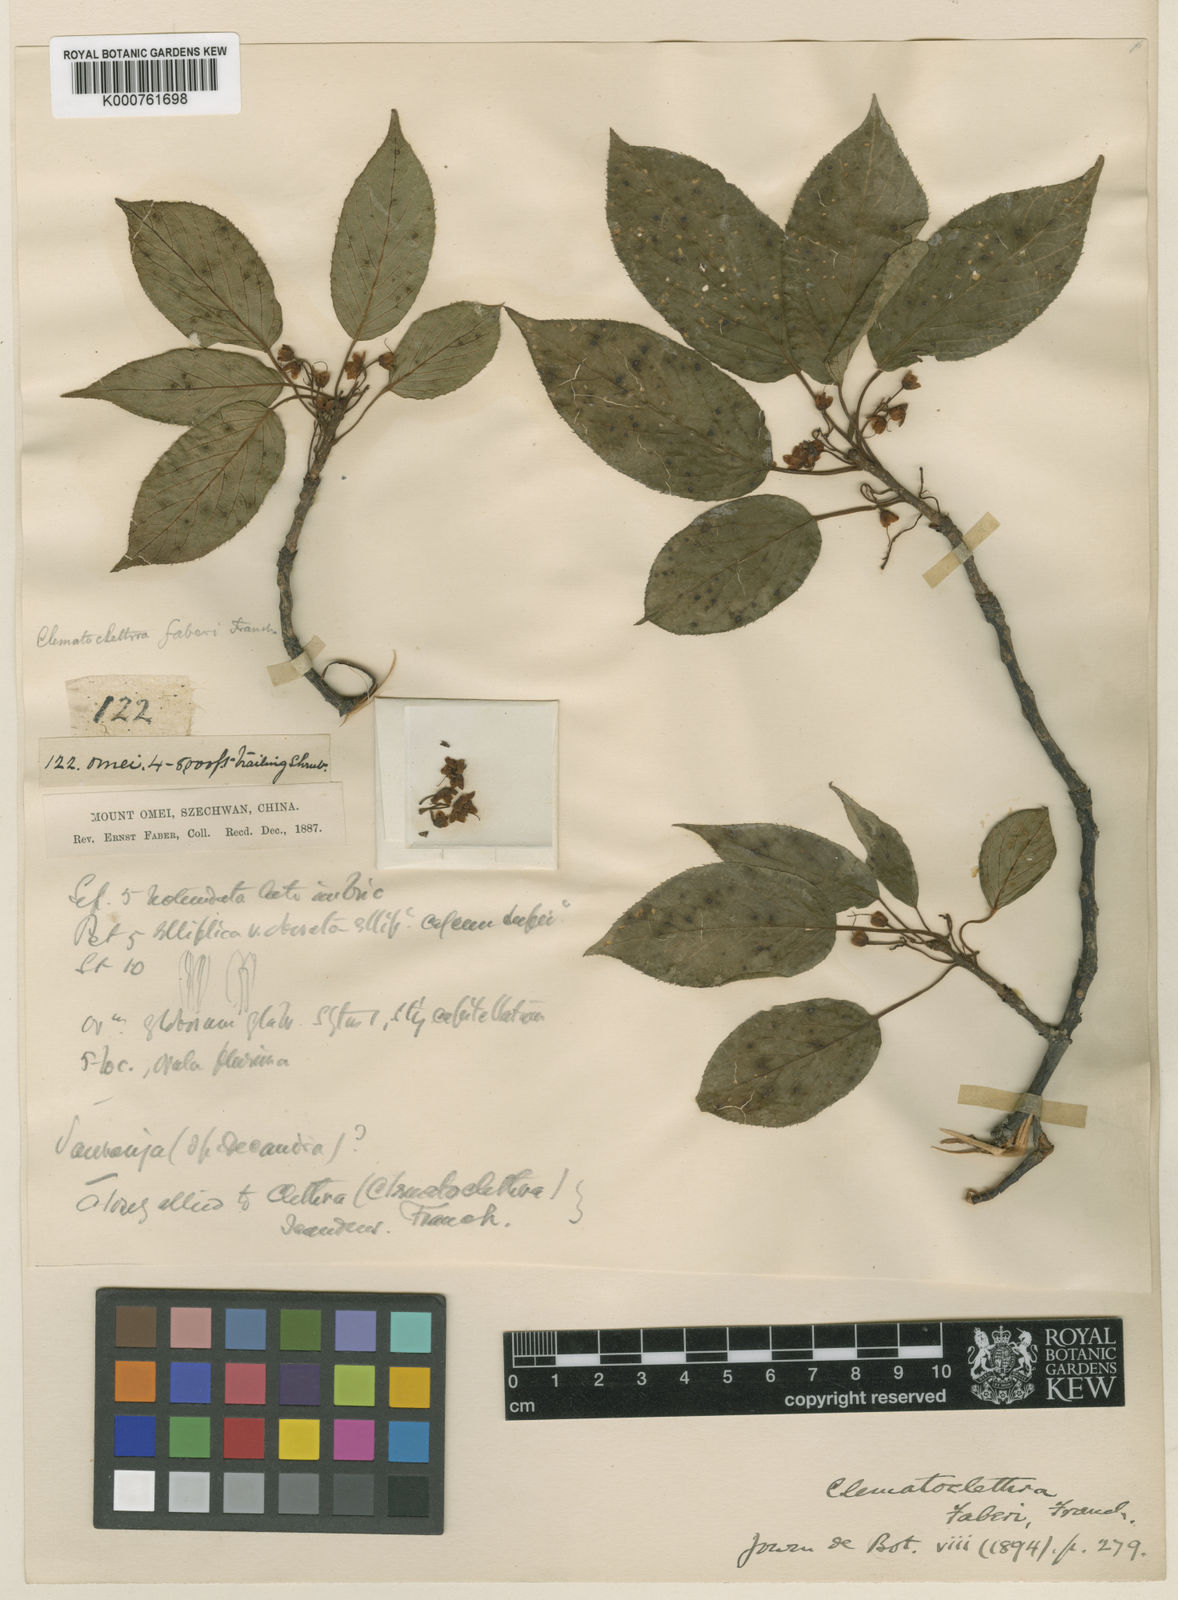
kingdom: Plantae
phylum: Tracheophyta
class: Magnoliopsida
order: Ericales
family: Actinidiaceae
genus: Clematoclethra
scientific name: Clematoclethra scandens
